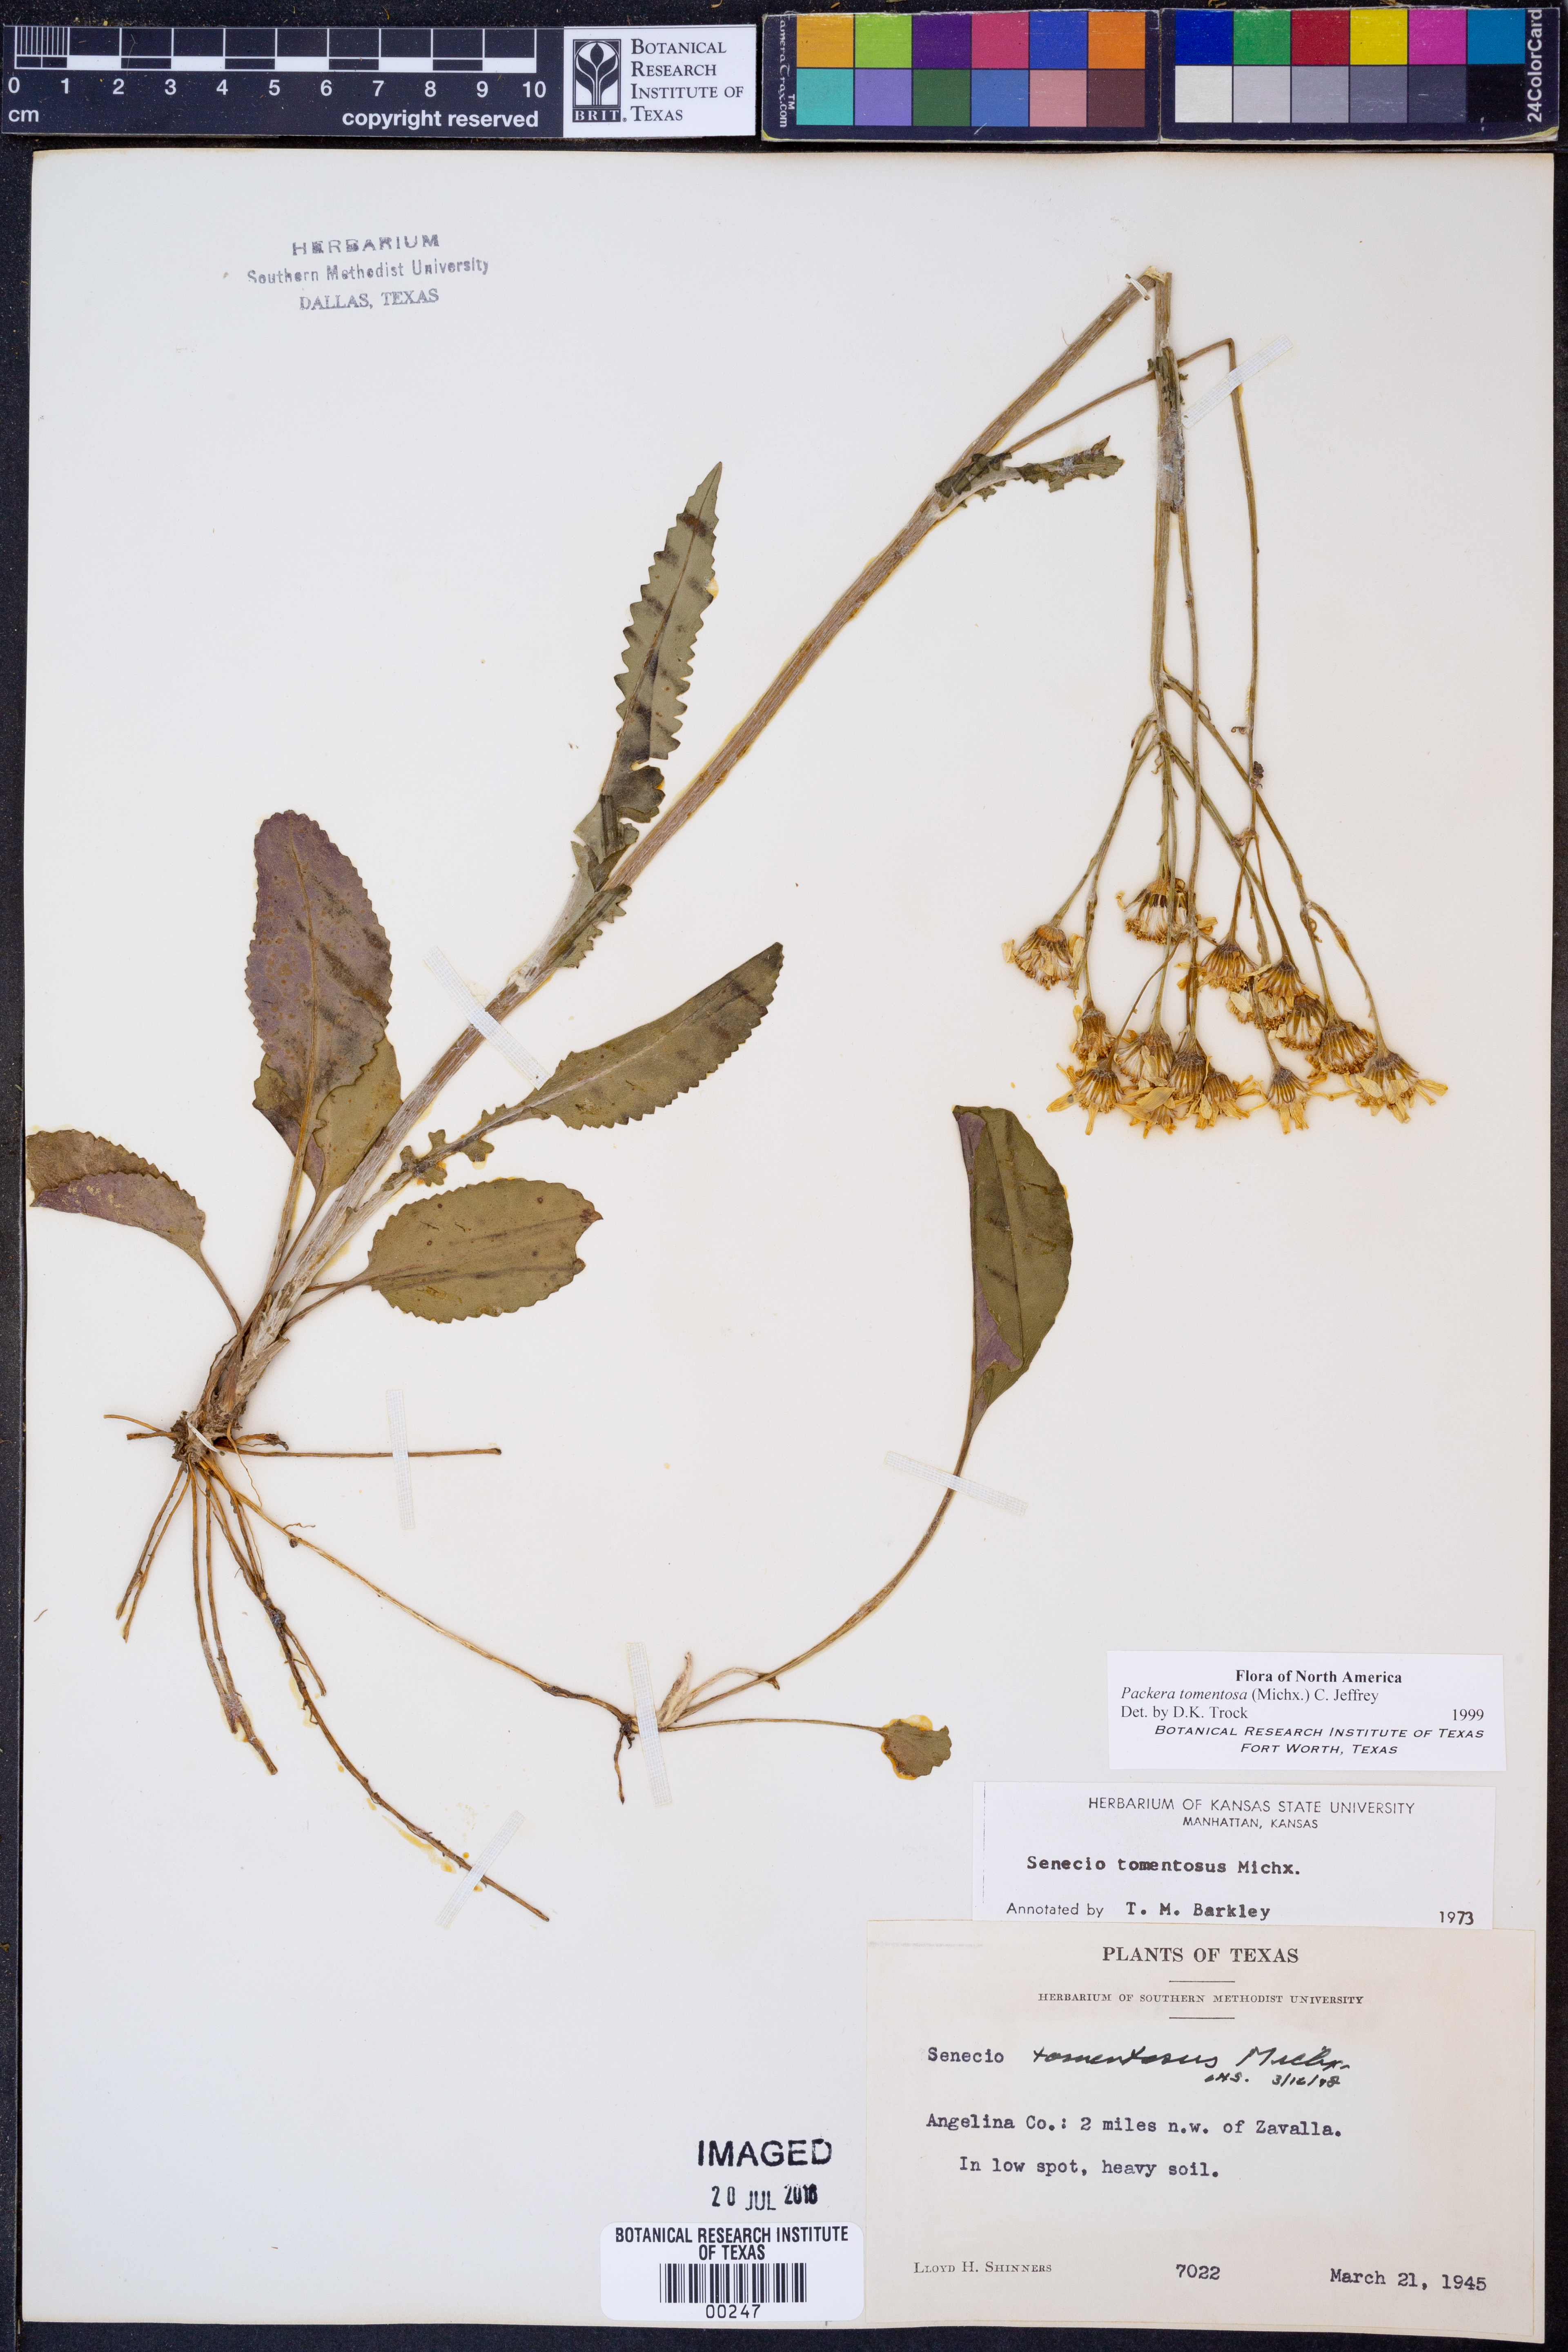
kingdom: Plantae
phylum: Tracheophyta
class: Magnoliopsida
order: Asterales
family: Asteraceae
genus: Packera
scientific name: Packera dubia
